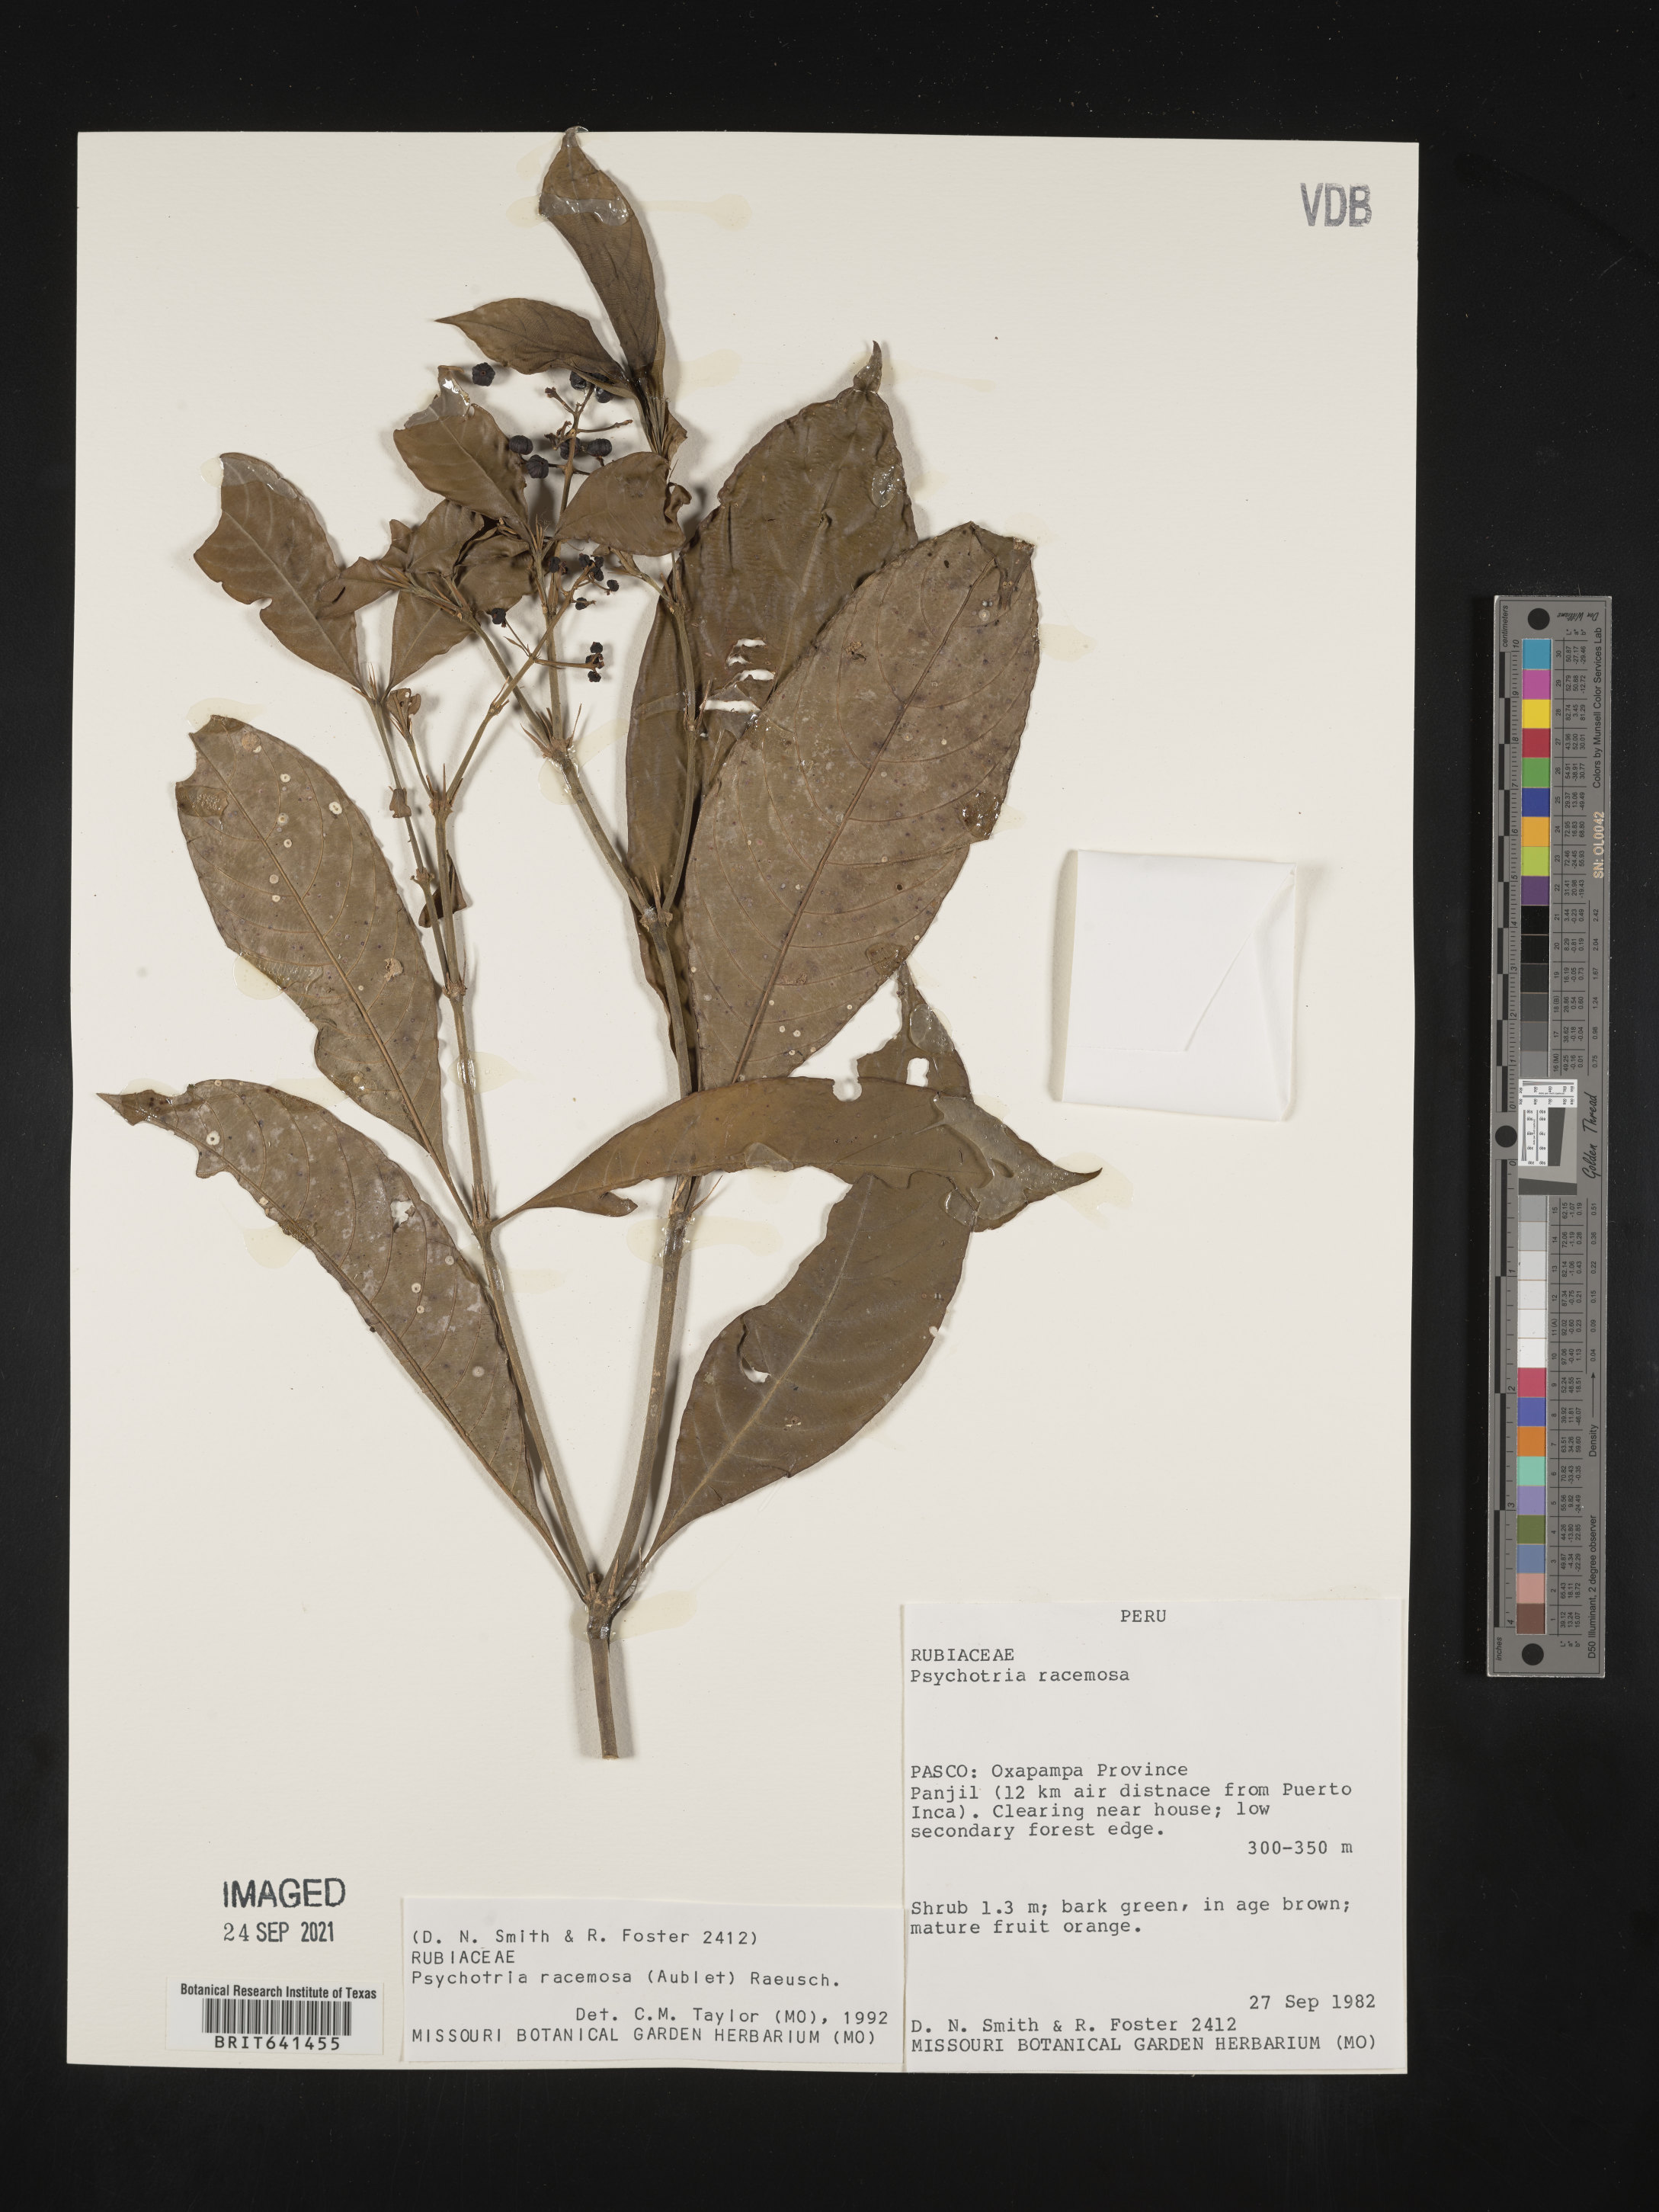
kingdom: Plantae
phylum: Tracheophyta
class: Magnoliopsida
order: Gentianales
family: Rubiaceae
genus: Psychotria
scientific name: Psychotria
